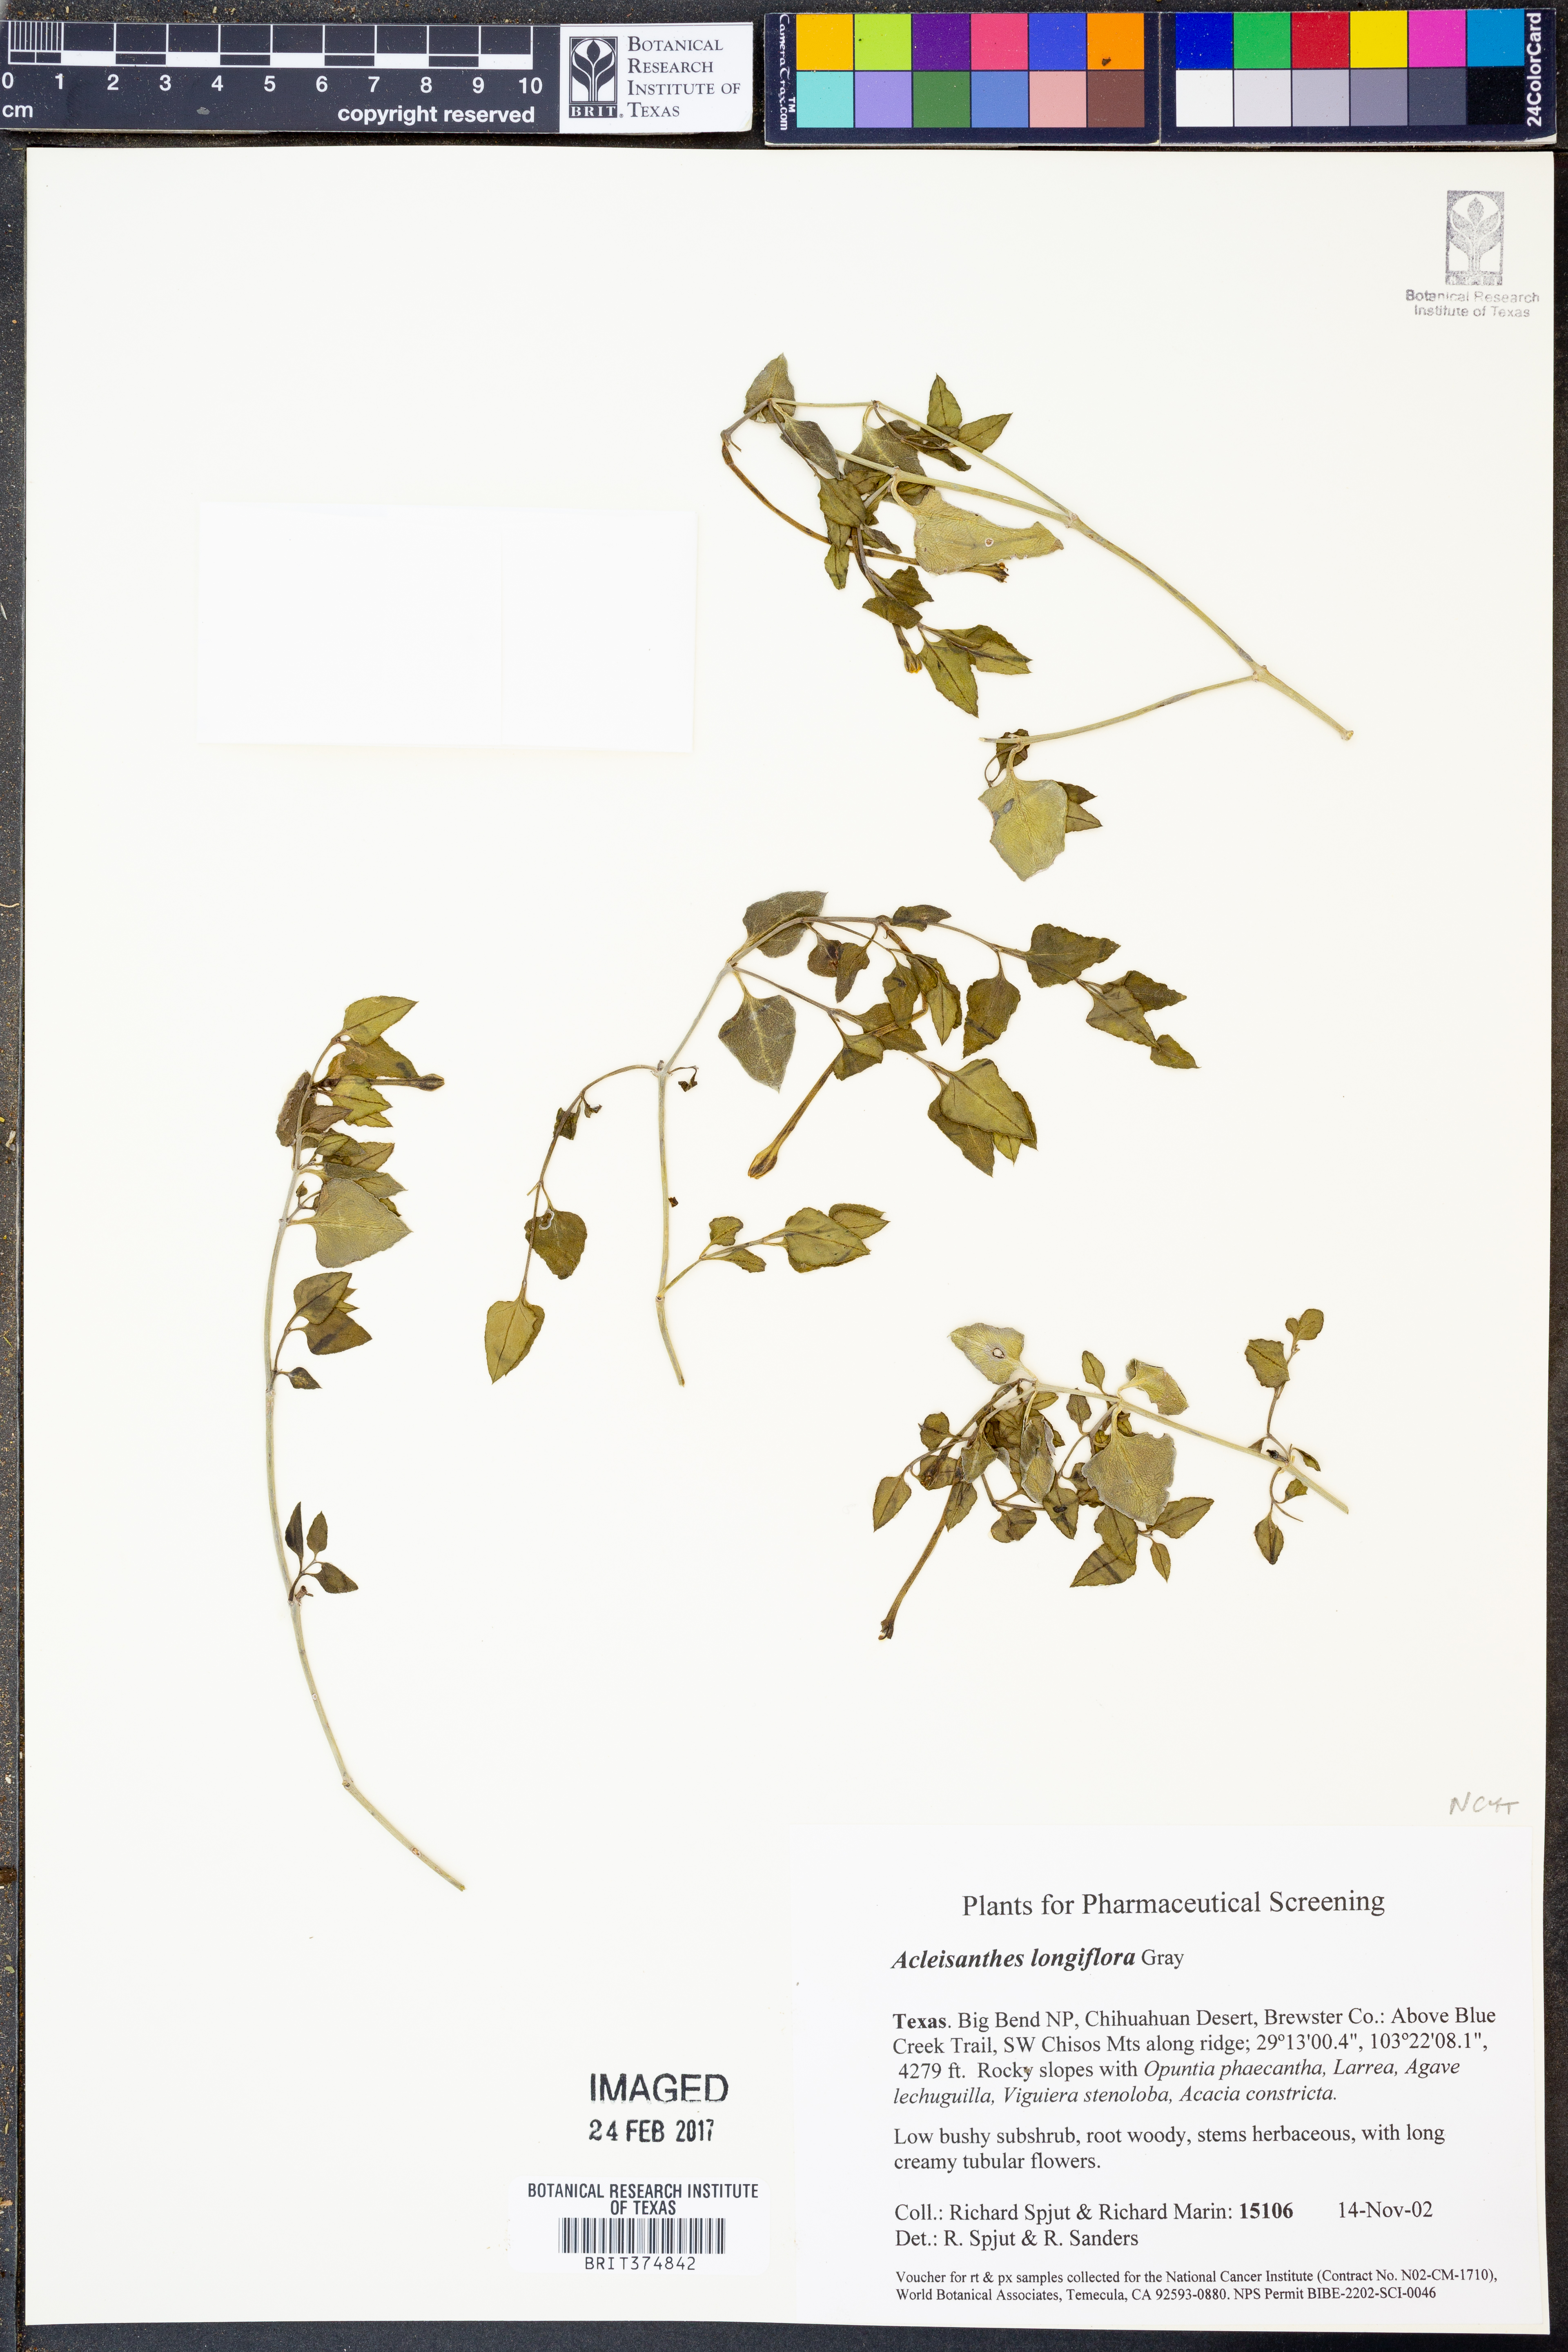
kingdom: Plantae
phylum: Tracheophyta
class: Magnoliopsida
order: Caryophyllales
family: Nyctaginaceae
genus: Acleisanthes
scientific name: Acleisanthes longiflora
